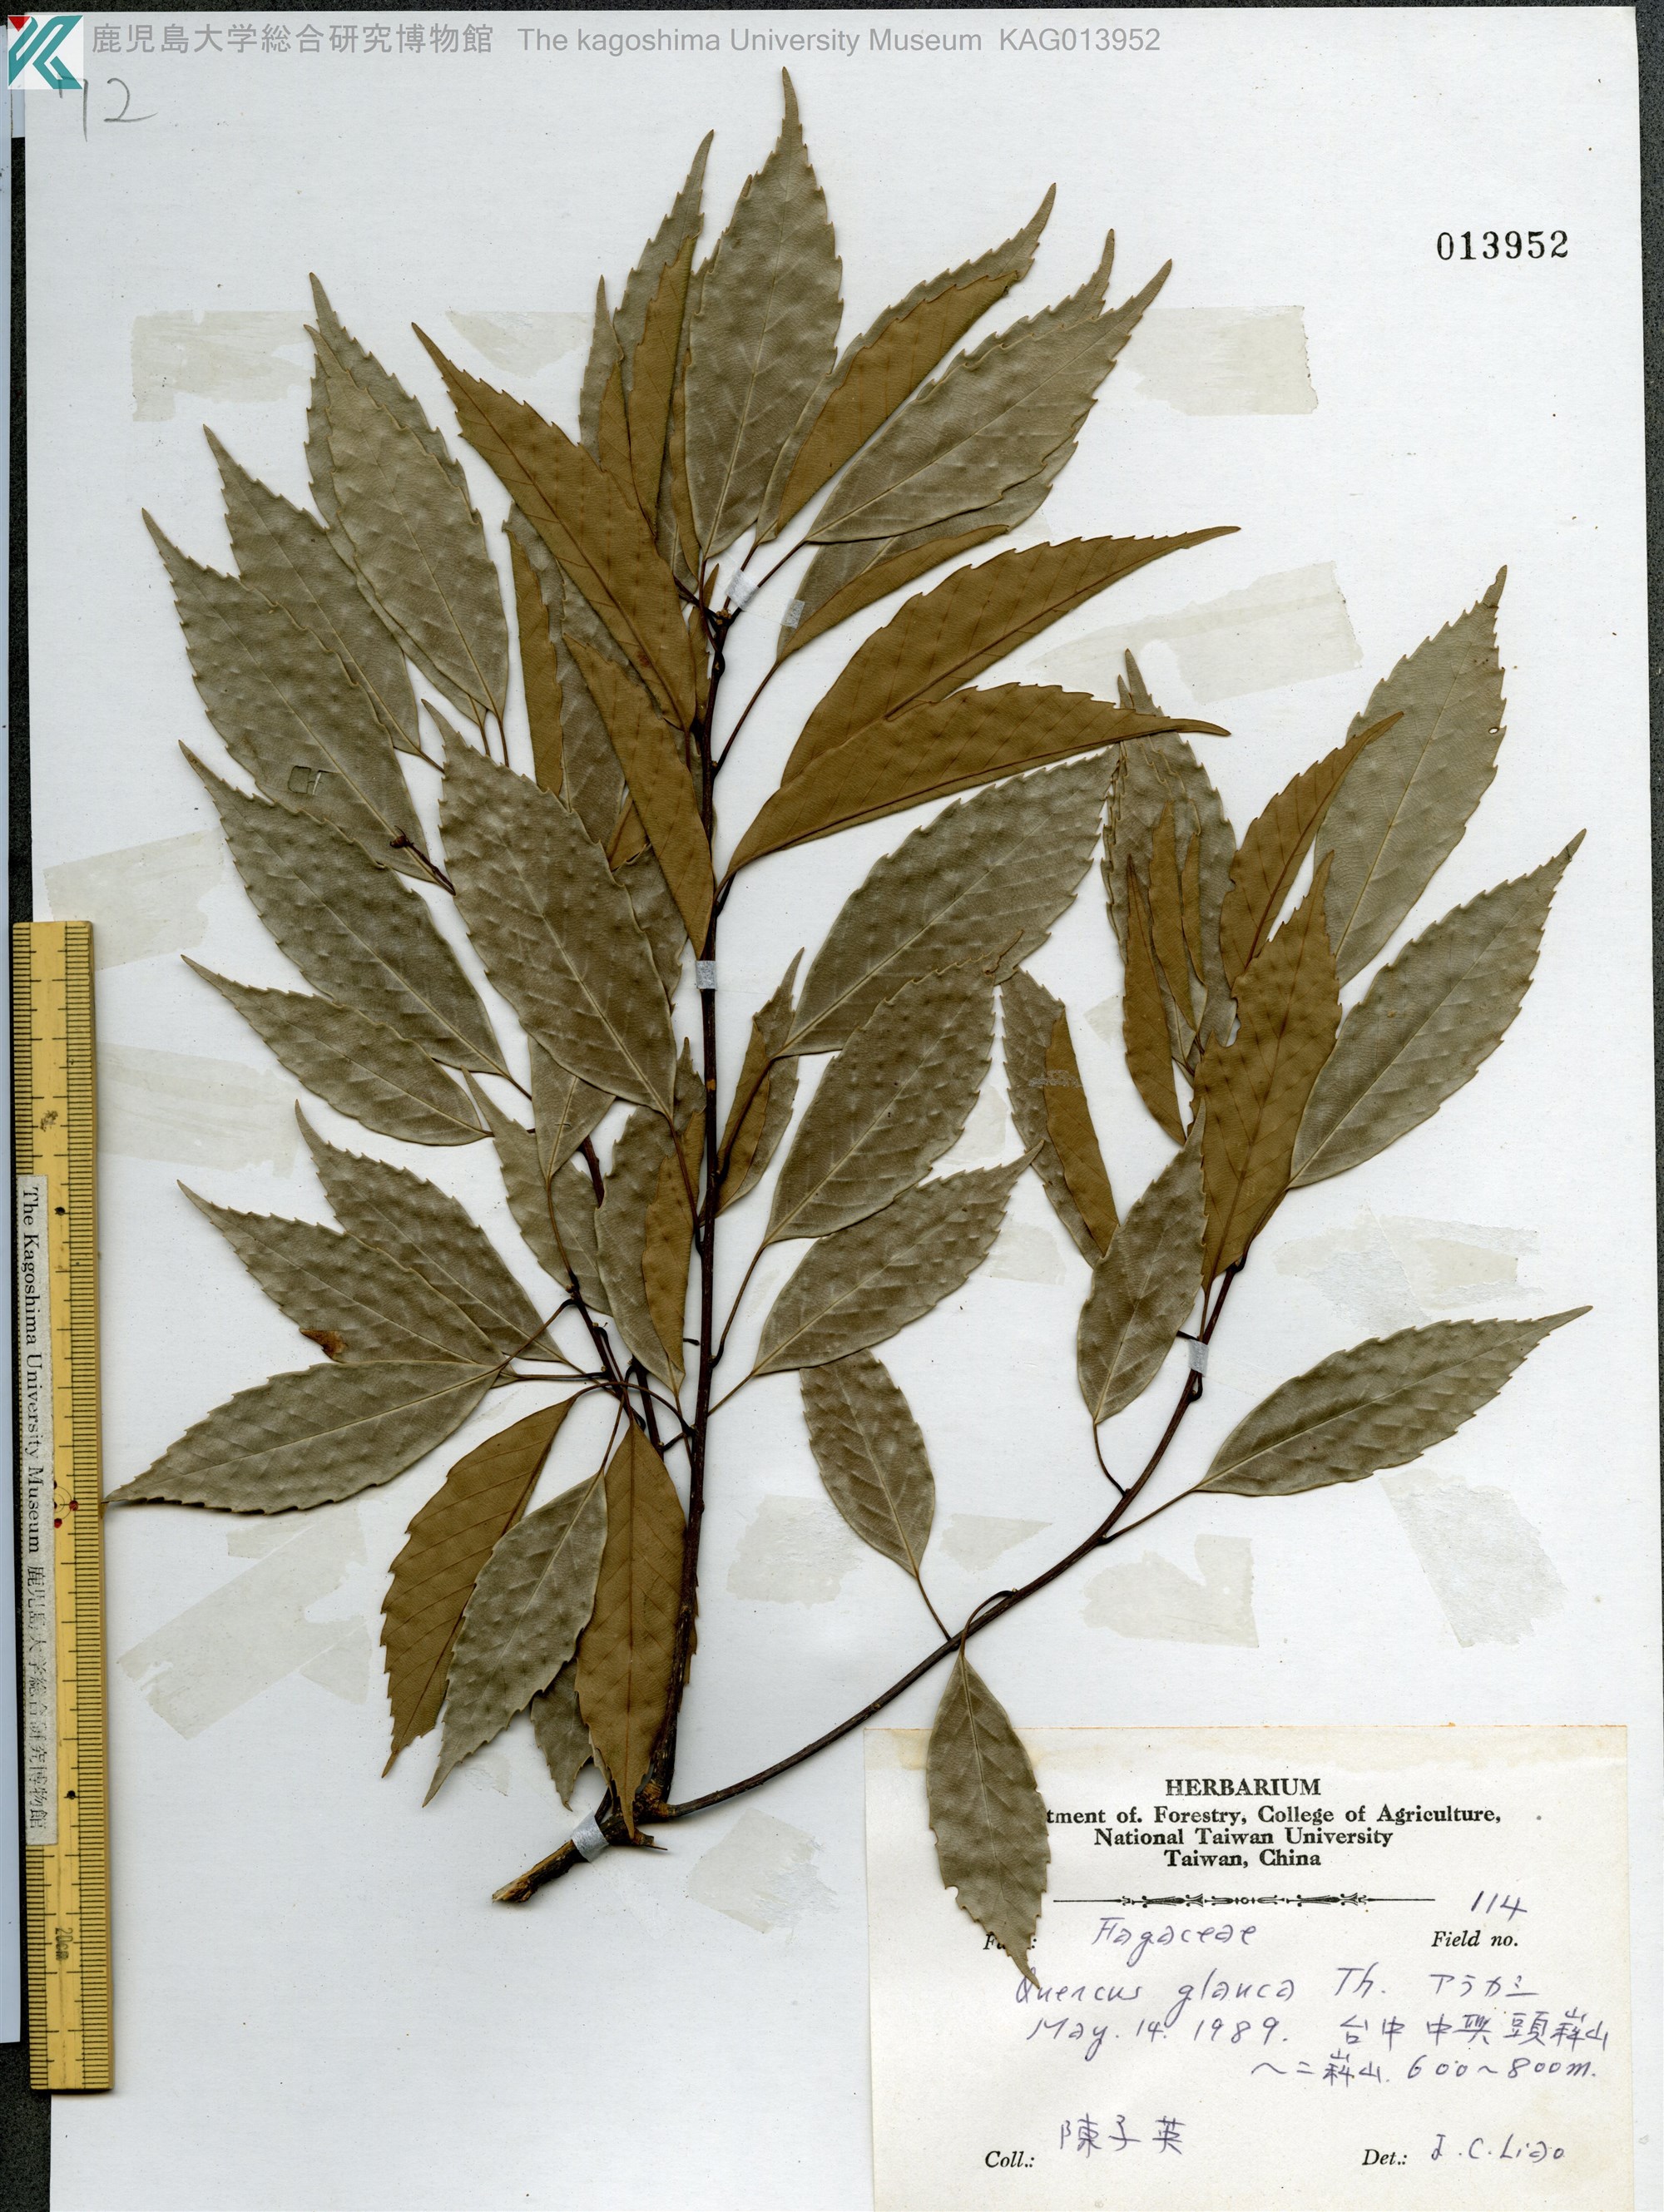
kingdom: Plantae
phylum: Tracheophyta
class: Magnoliopsida
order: Fagales
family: Fagaceae
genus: Quercus
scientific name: Quercus glauca
